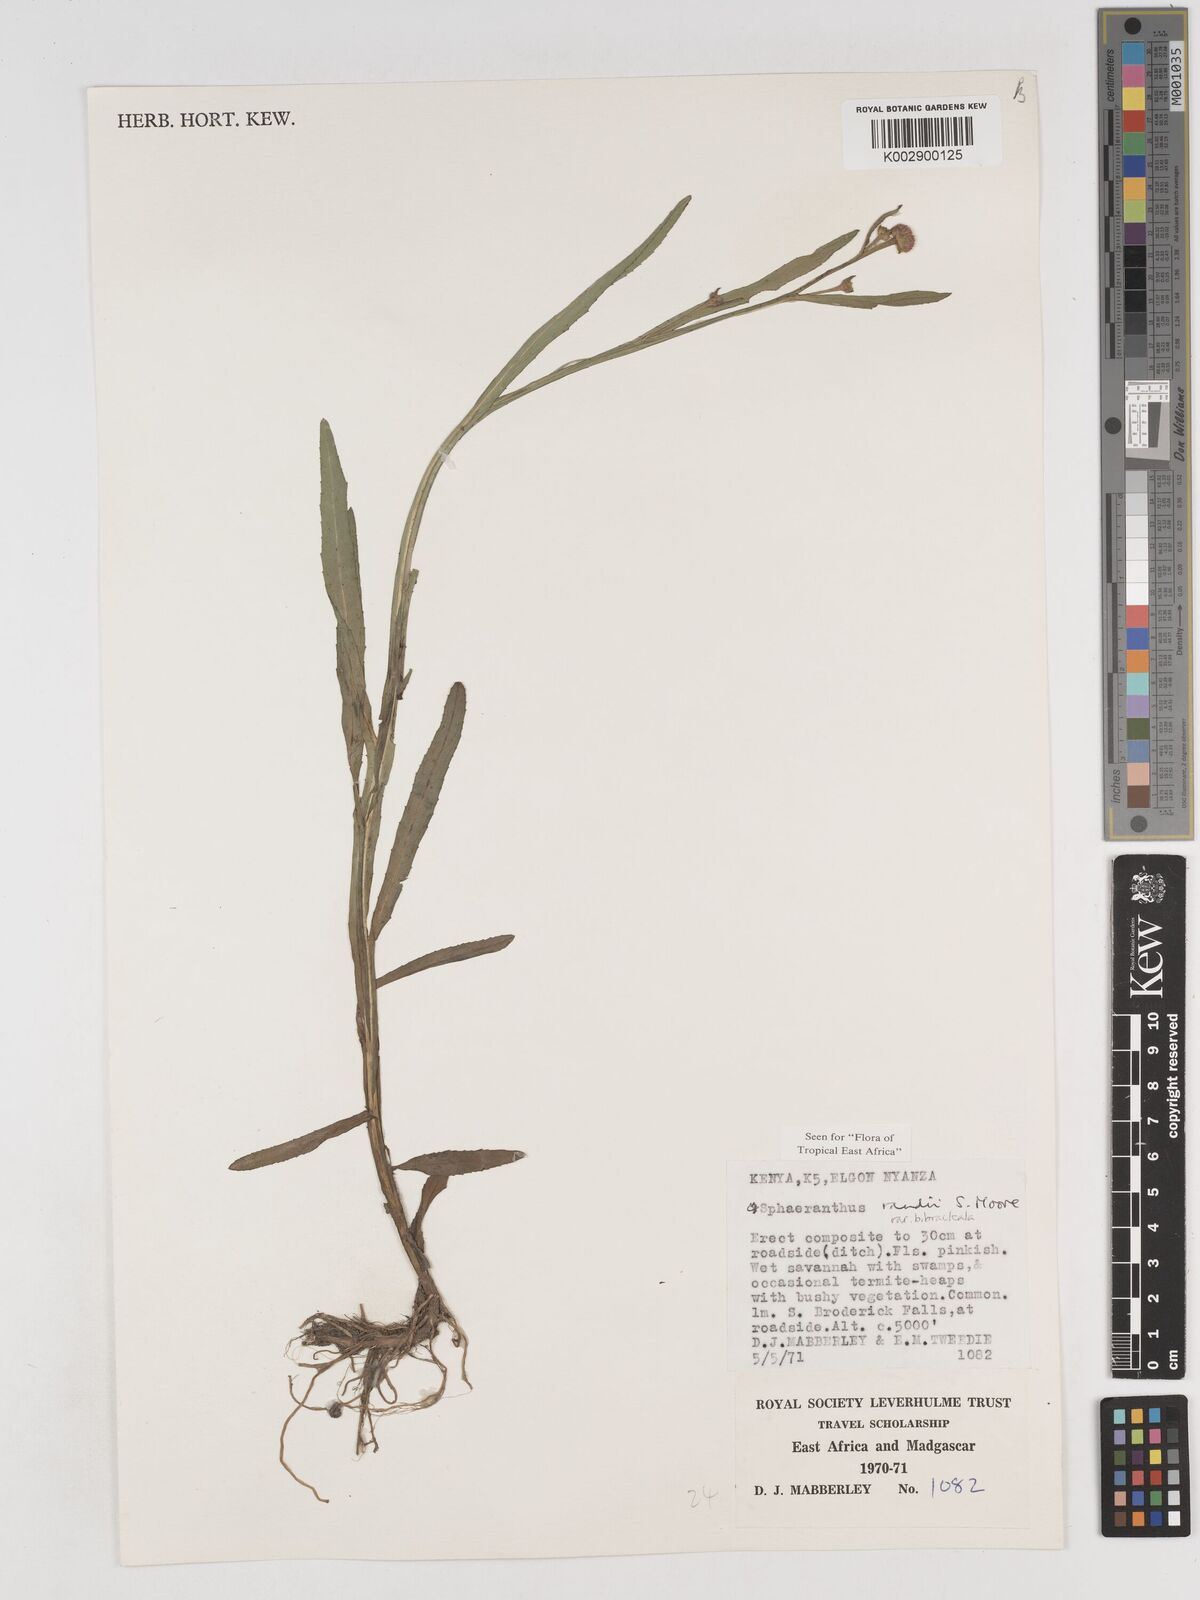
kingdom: Plantae
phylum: Tracheophyta
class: Magnoliopsida
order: Asterales
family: Asteraceae
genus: Sphaeranthus
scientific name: Sphaeranthus randii
